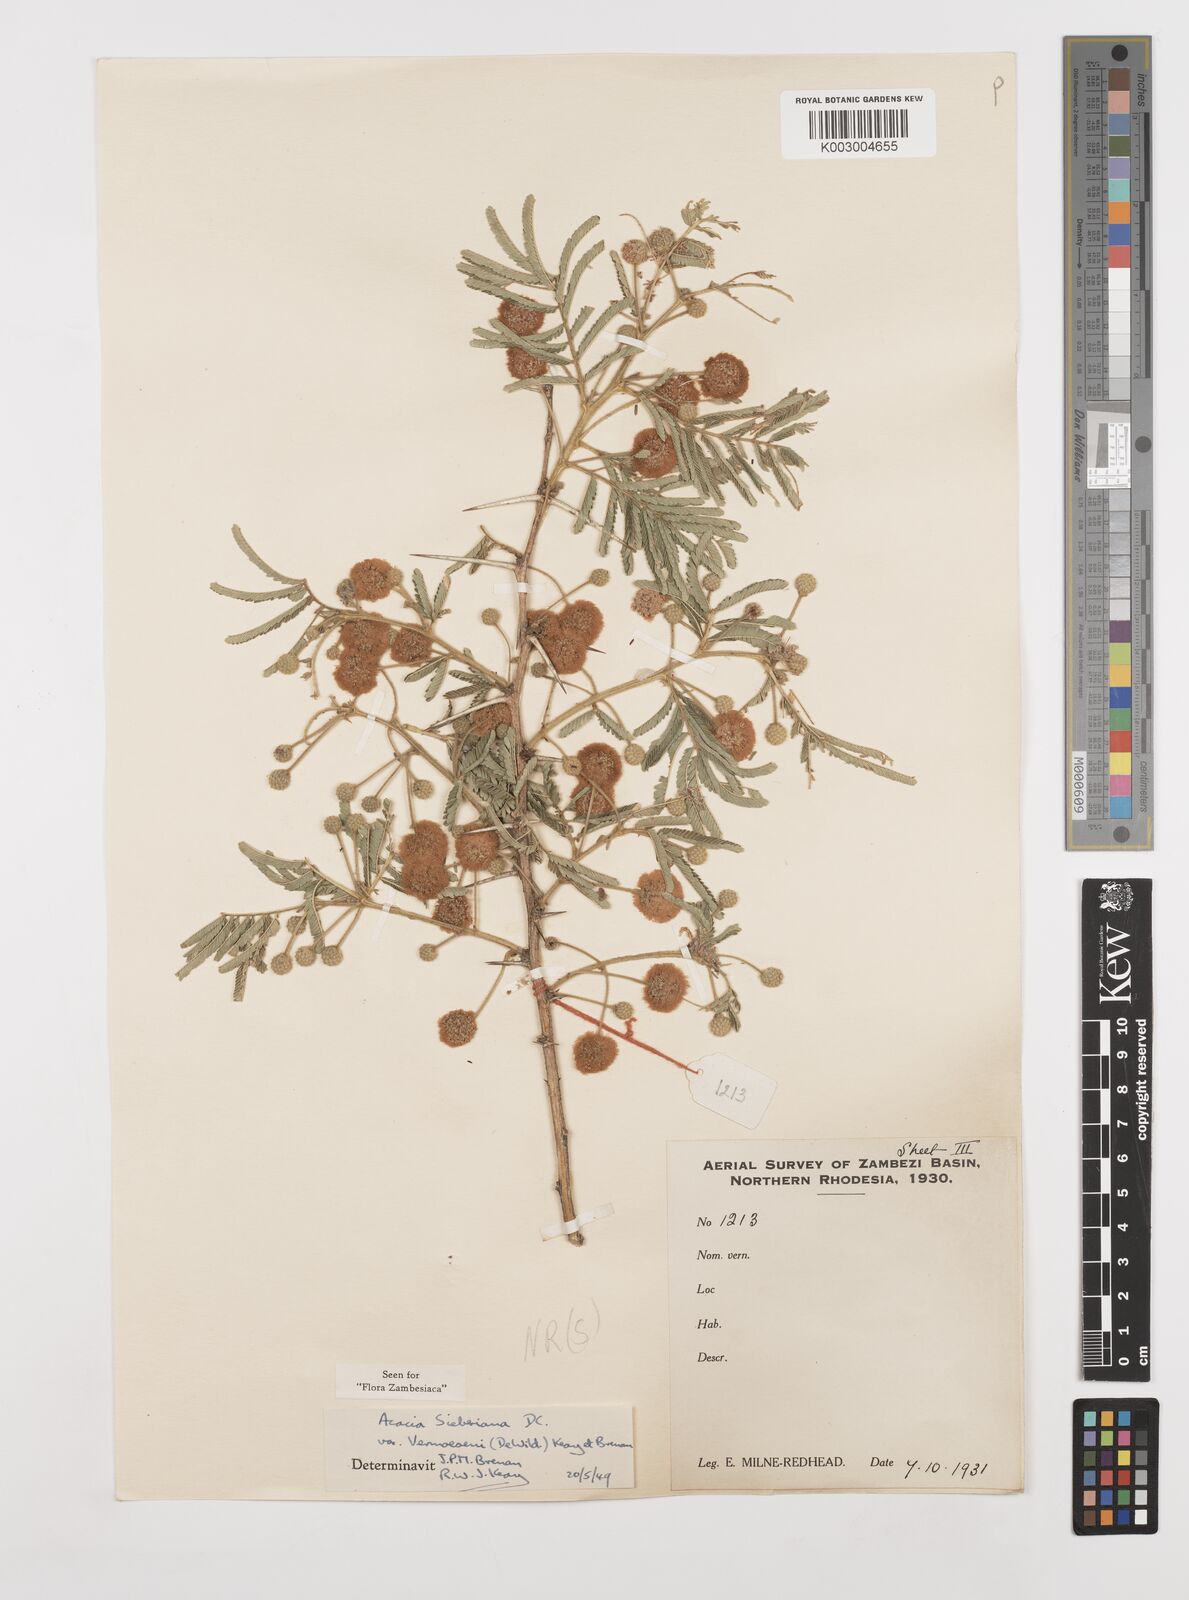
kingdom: Plantae
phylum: Tracheophyta
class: Magnoliopsida
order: Fabales
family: Fabaceae
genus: Vachellia
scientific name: Vachellia sieberiana
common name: Flat-topped thorn
